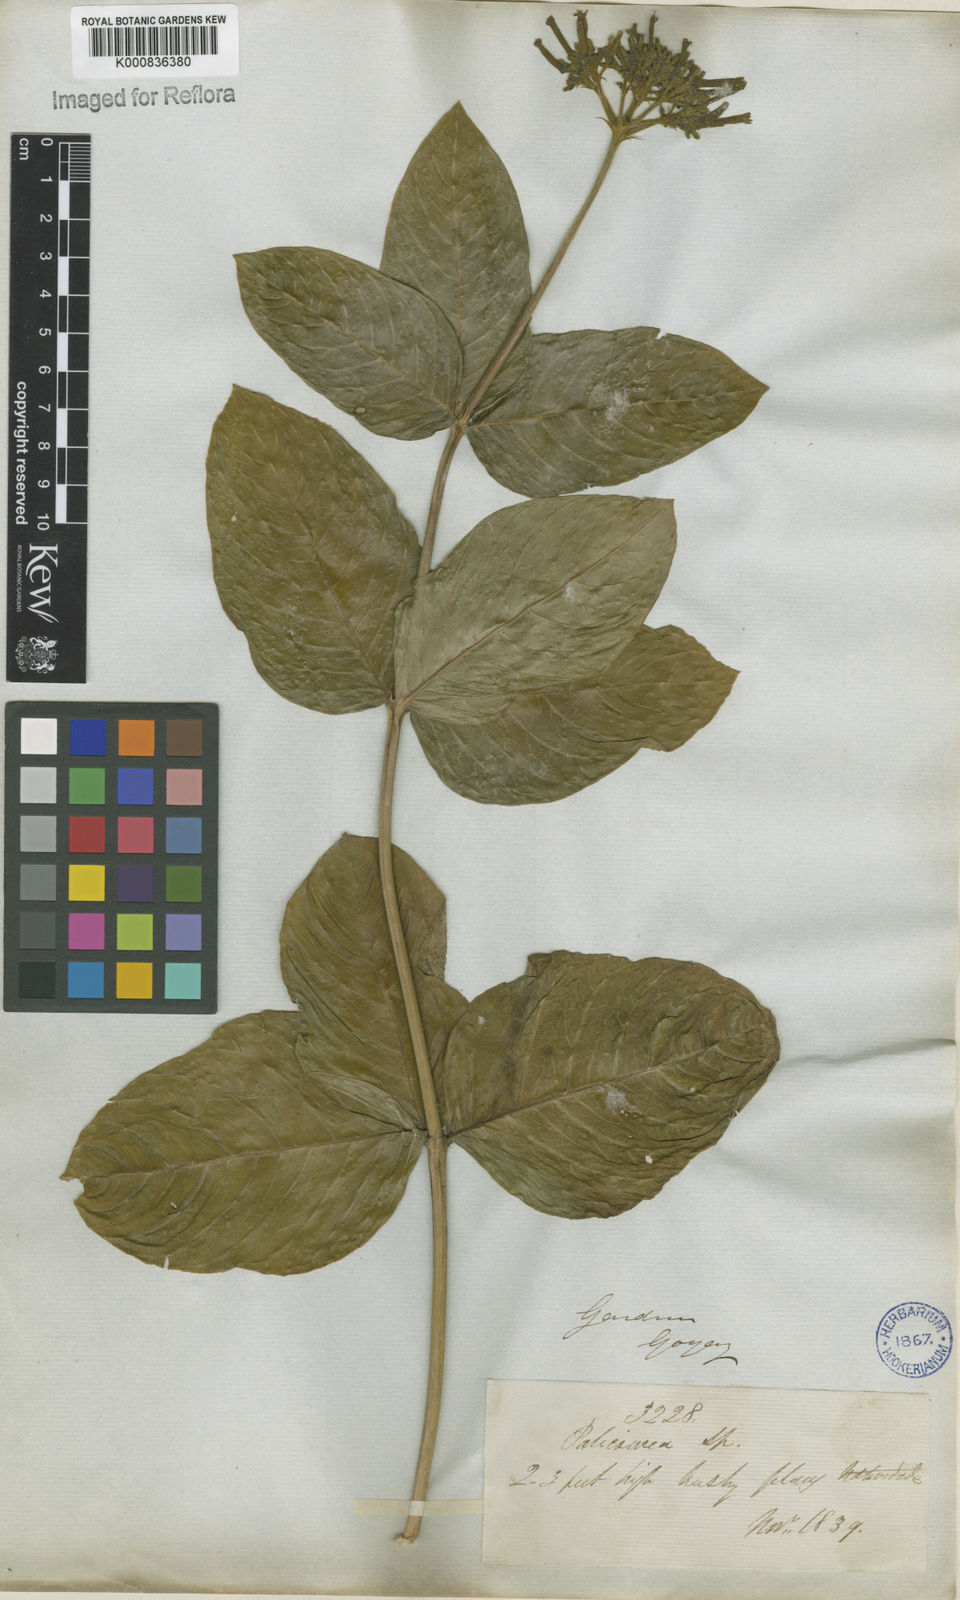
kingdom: Plantae
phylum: Tracheophyta
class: Magnoliopsida
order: Gentianales
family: Rubiaceae
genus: Palicourea
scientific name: Palicourea officinalis
